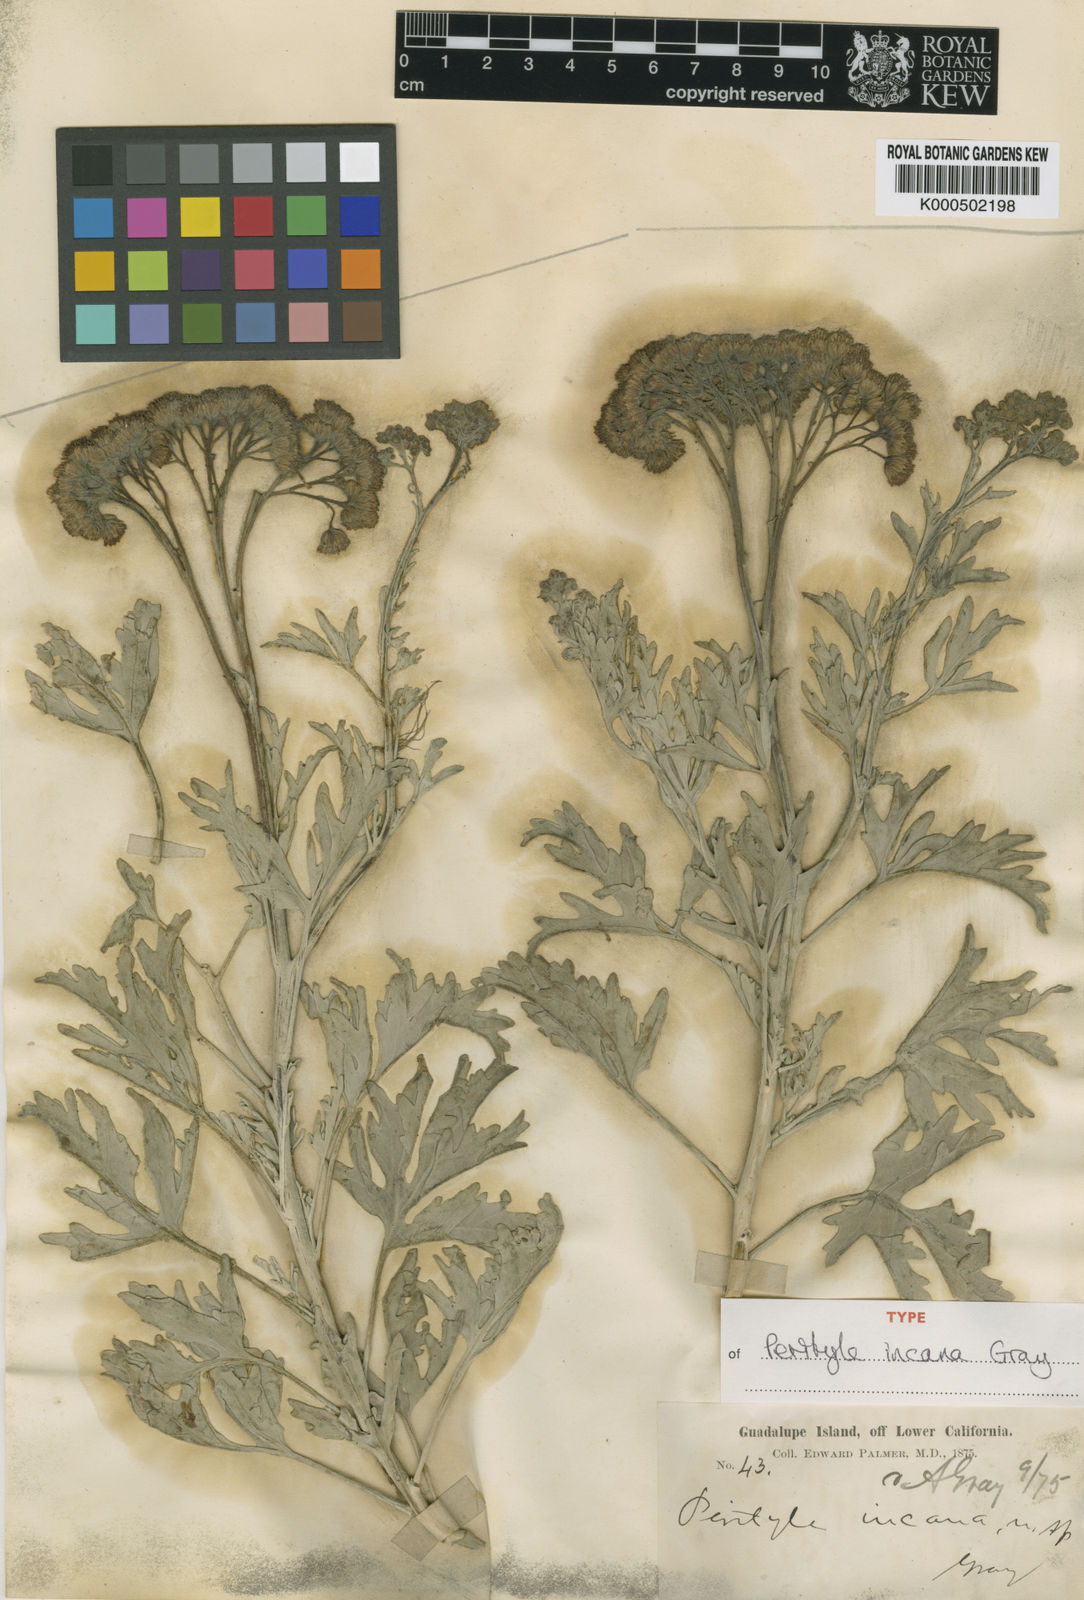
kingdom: Plantae
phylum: Tracheophyta
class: Magnoliopsida
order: Asterales
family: Asteraceae
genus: Nesothamnus
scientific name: Nesothamnus incanus
